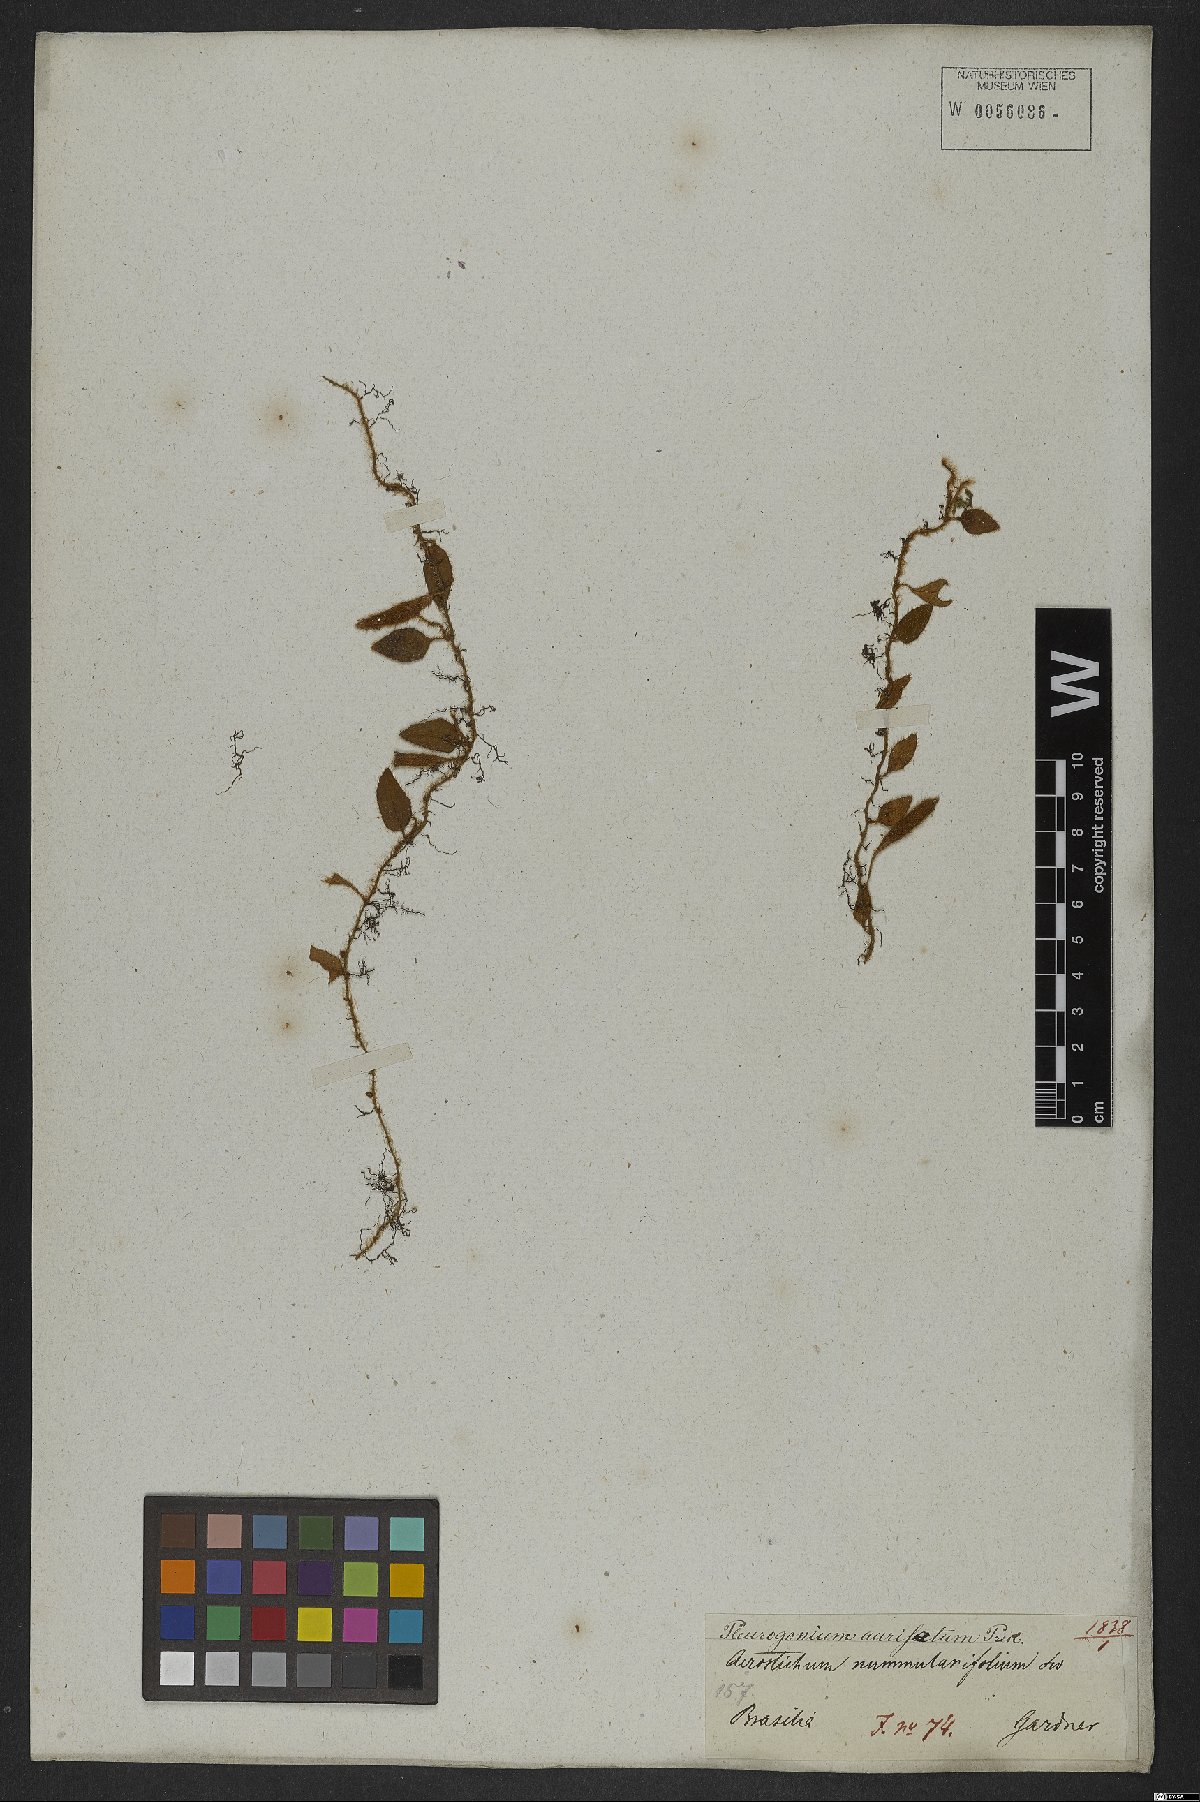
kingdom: Plantae
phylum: Tracheophyta
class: Polypodiopsida
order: Polypodiales
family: Polypodiaceae
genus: Microgramma
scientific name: Microgramma tecta
